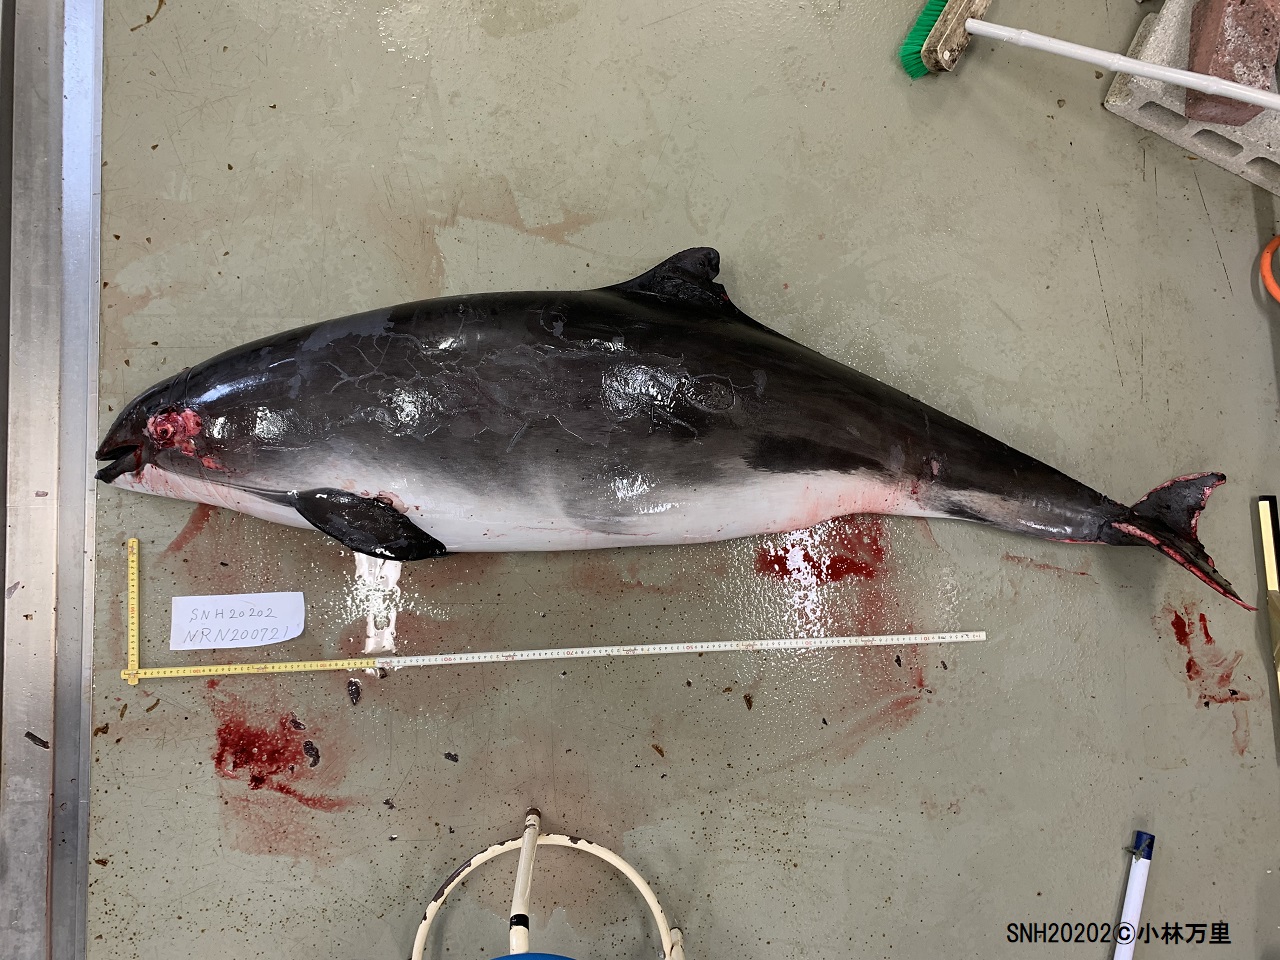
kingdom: Animalia
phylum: Chordata
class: Mammalia
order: Cetacea
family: Phocoenidae
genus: Phocoena
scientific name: Phocoena phocoena
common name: Harbour porpoise
